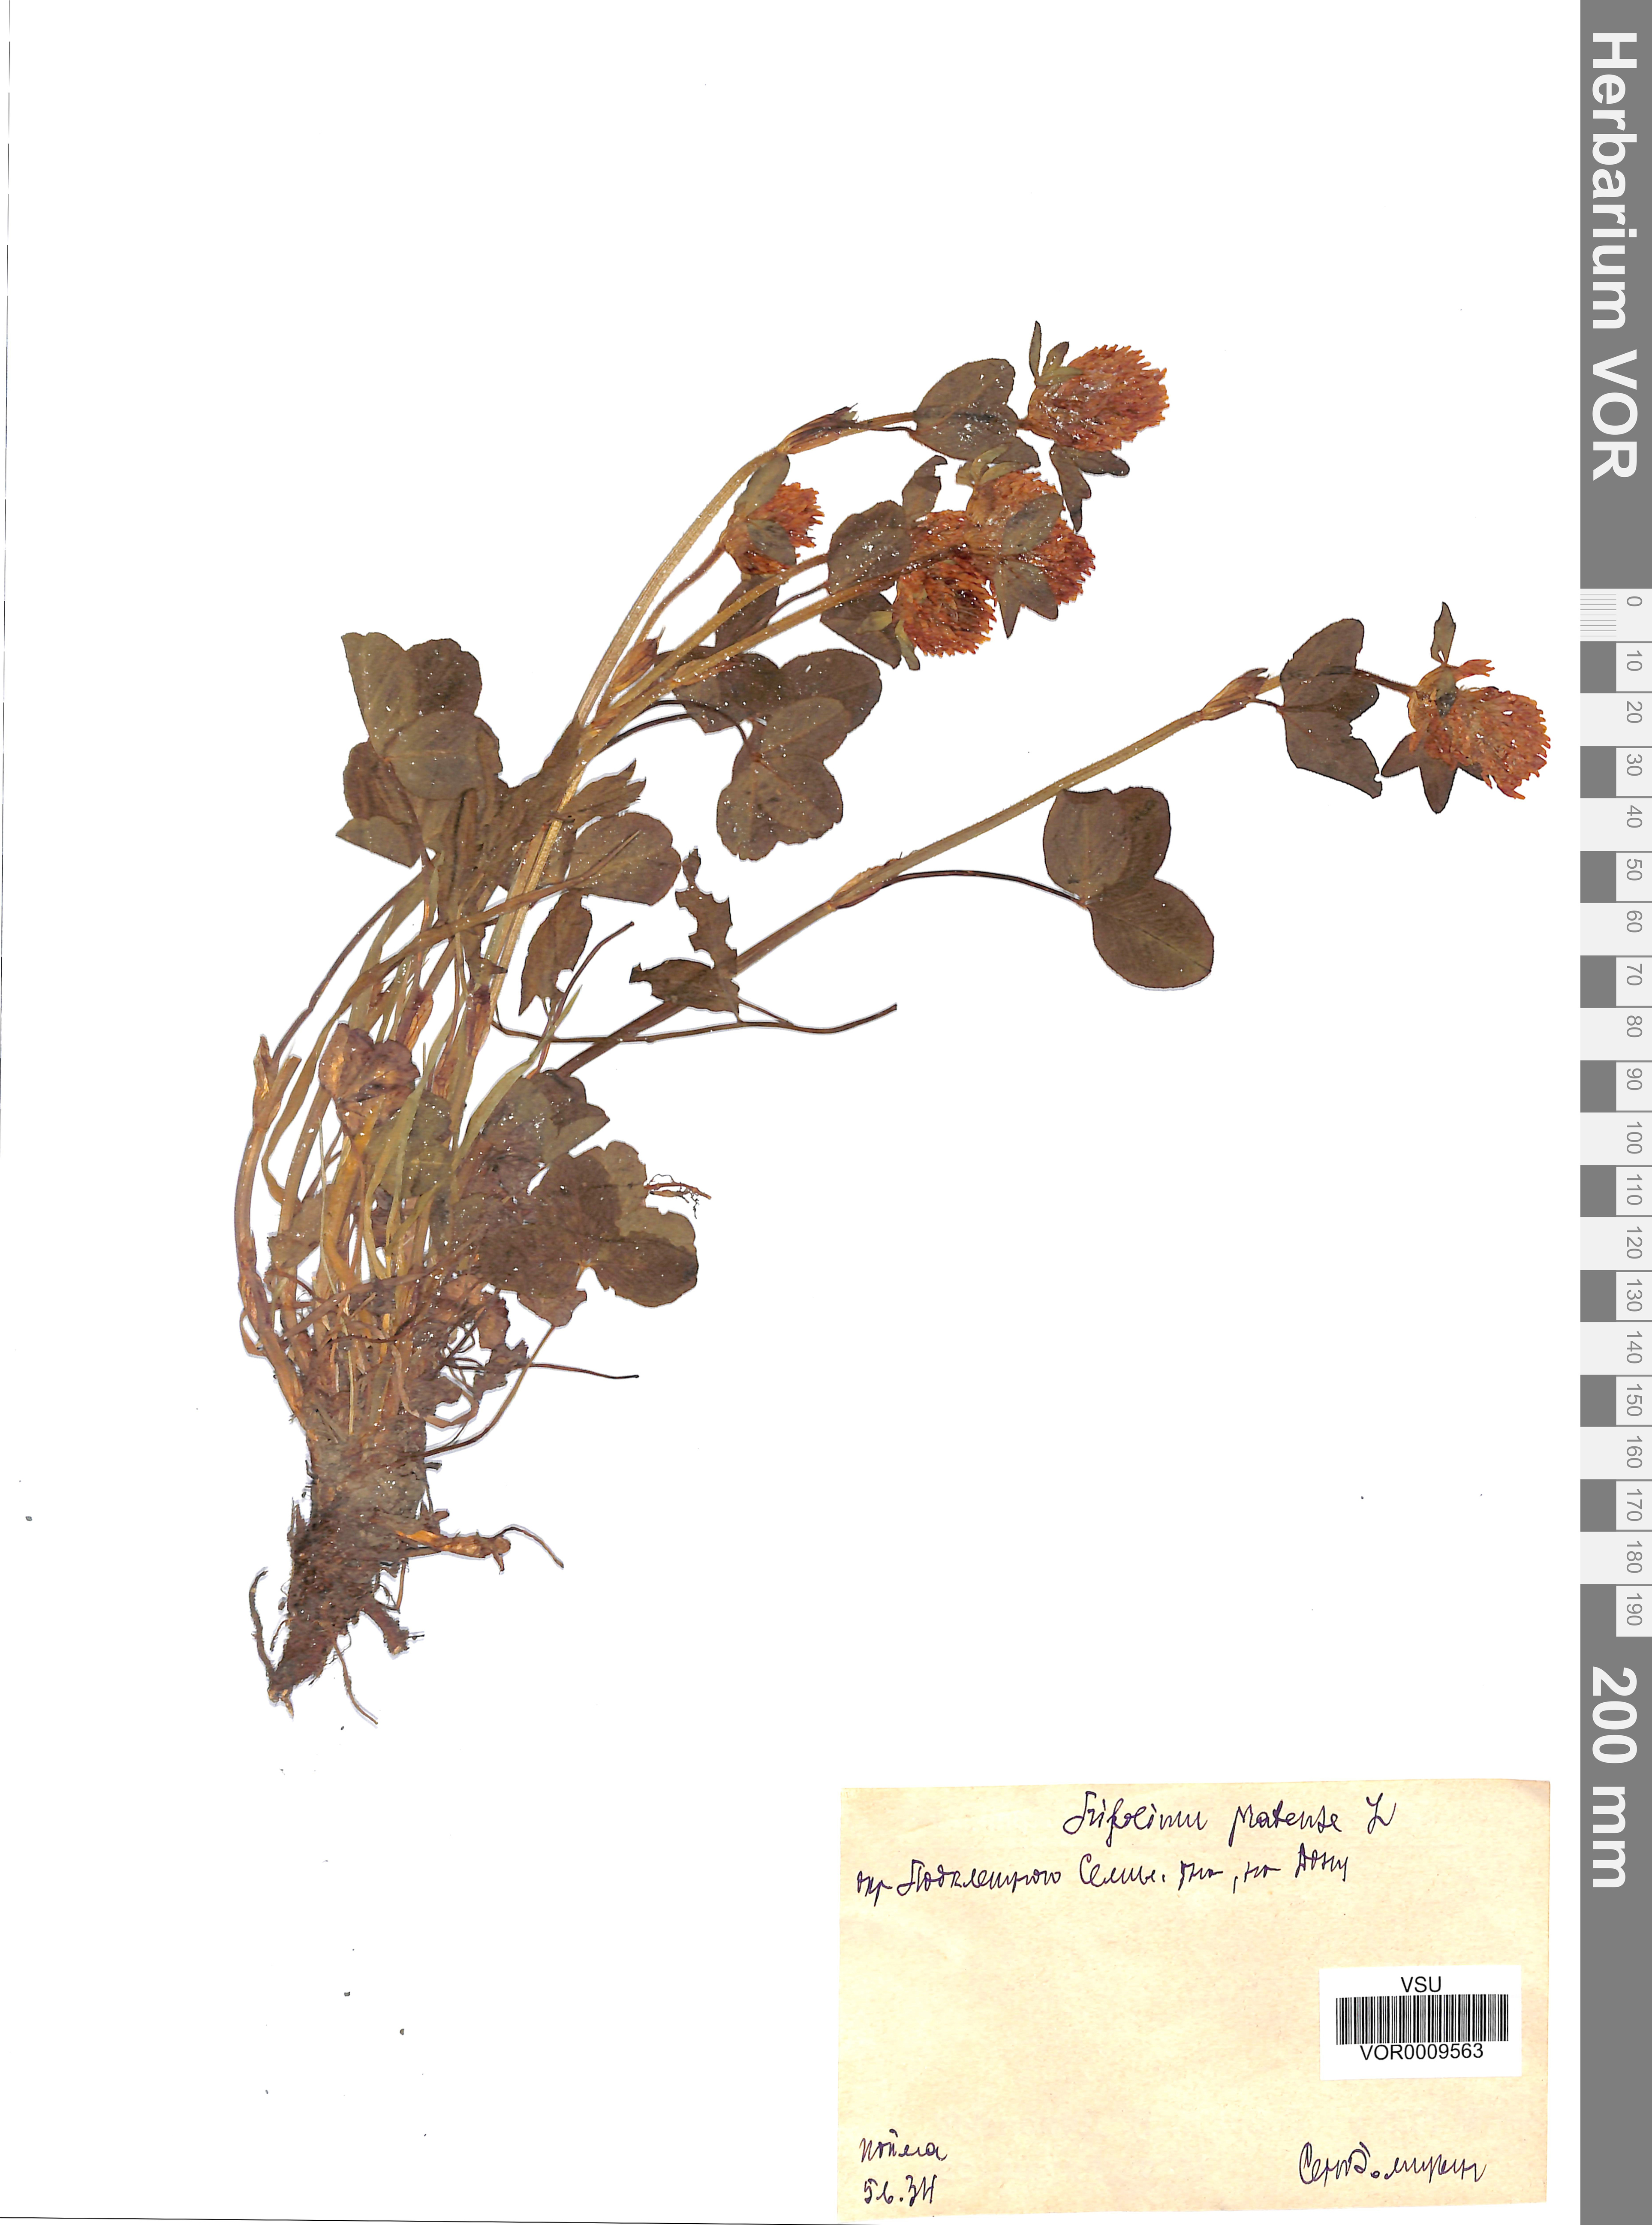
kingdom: Plantae
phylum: Tracheophyta
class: Magnoliopsida
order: Fabales
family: Fabaceae
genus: Trifolium
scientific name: Trifolium pratense
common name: Red clover
